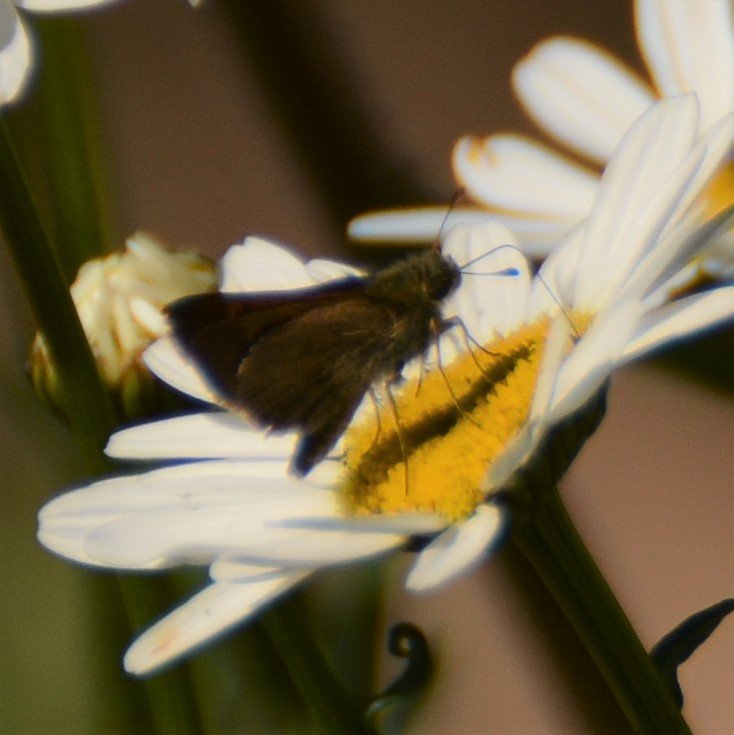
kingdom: Animalia
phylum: Arthropoda
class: Insecta
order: Lepidoptera
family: Hesperiidae
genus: Polites
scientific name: Polites themistocles
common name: Tawny-edged Skipper
